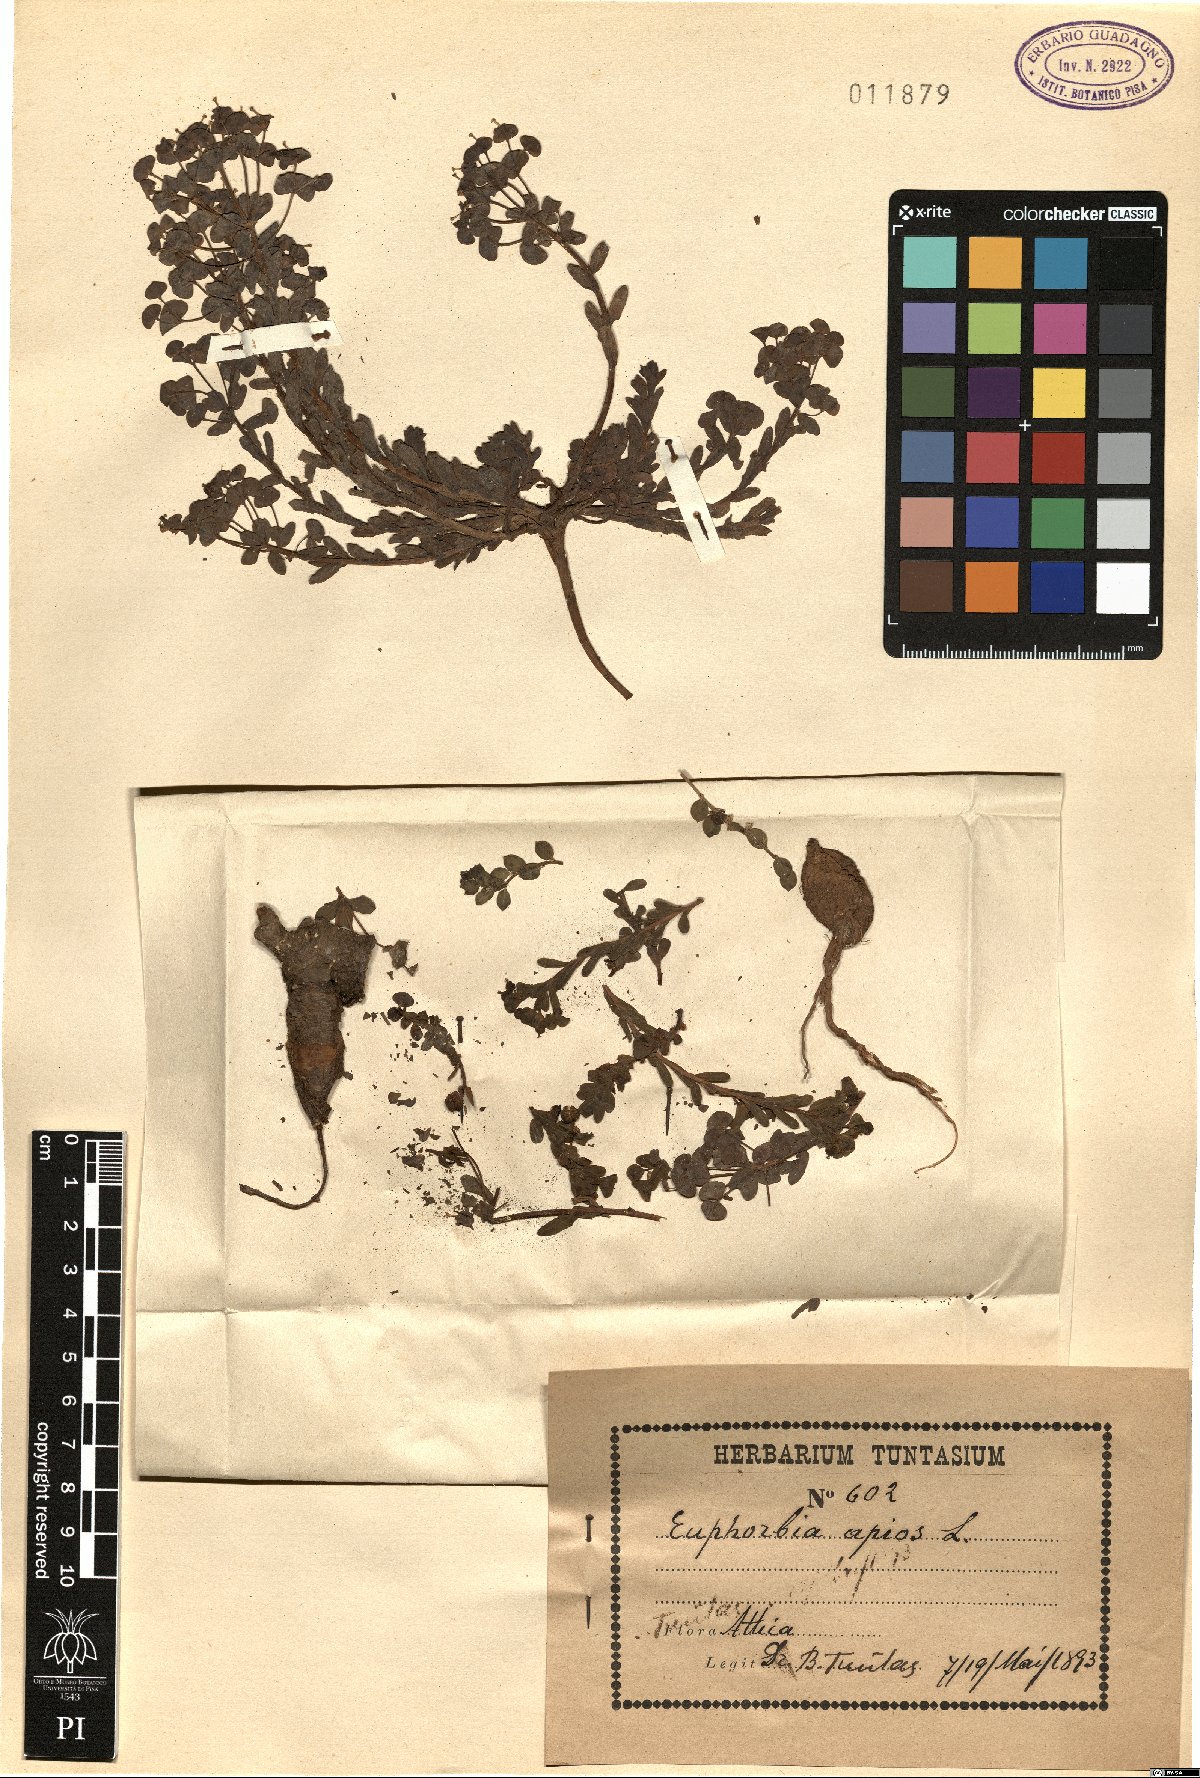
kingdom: Plantae
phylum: Tracheophyta
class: Magnoliopsida
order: Malpighiales
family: Euphorbiaceae
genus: Euphorbia
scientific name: Euphorbia apios
